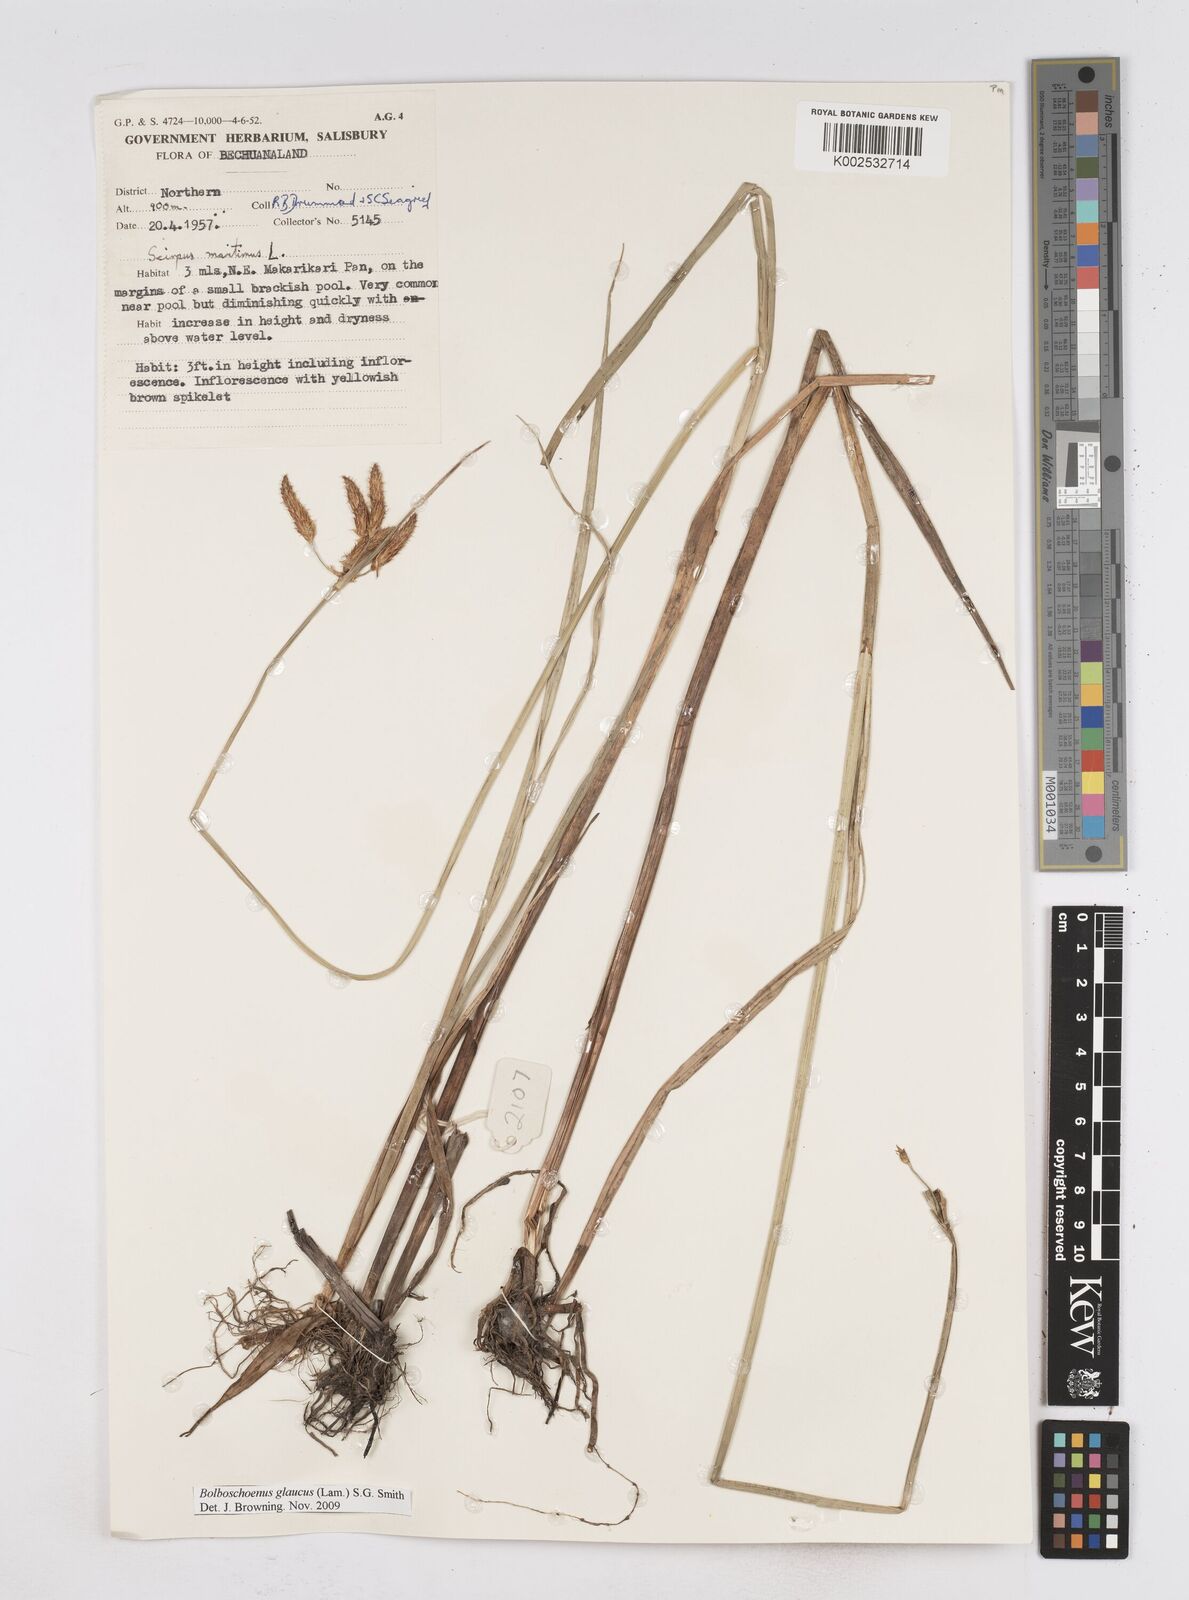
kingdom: Plantae
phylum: Tracheophyta
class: Liliopsida
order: Poales
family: Cyperaceae
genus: Bolboschoenus
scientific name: Bolboschoenus glaucus
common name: Tuberous bulrush
